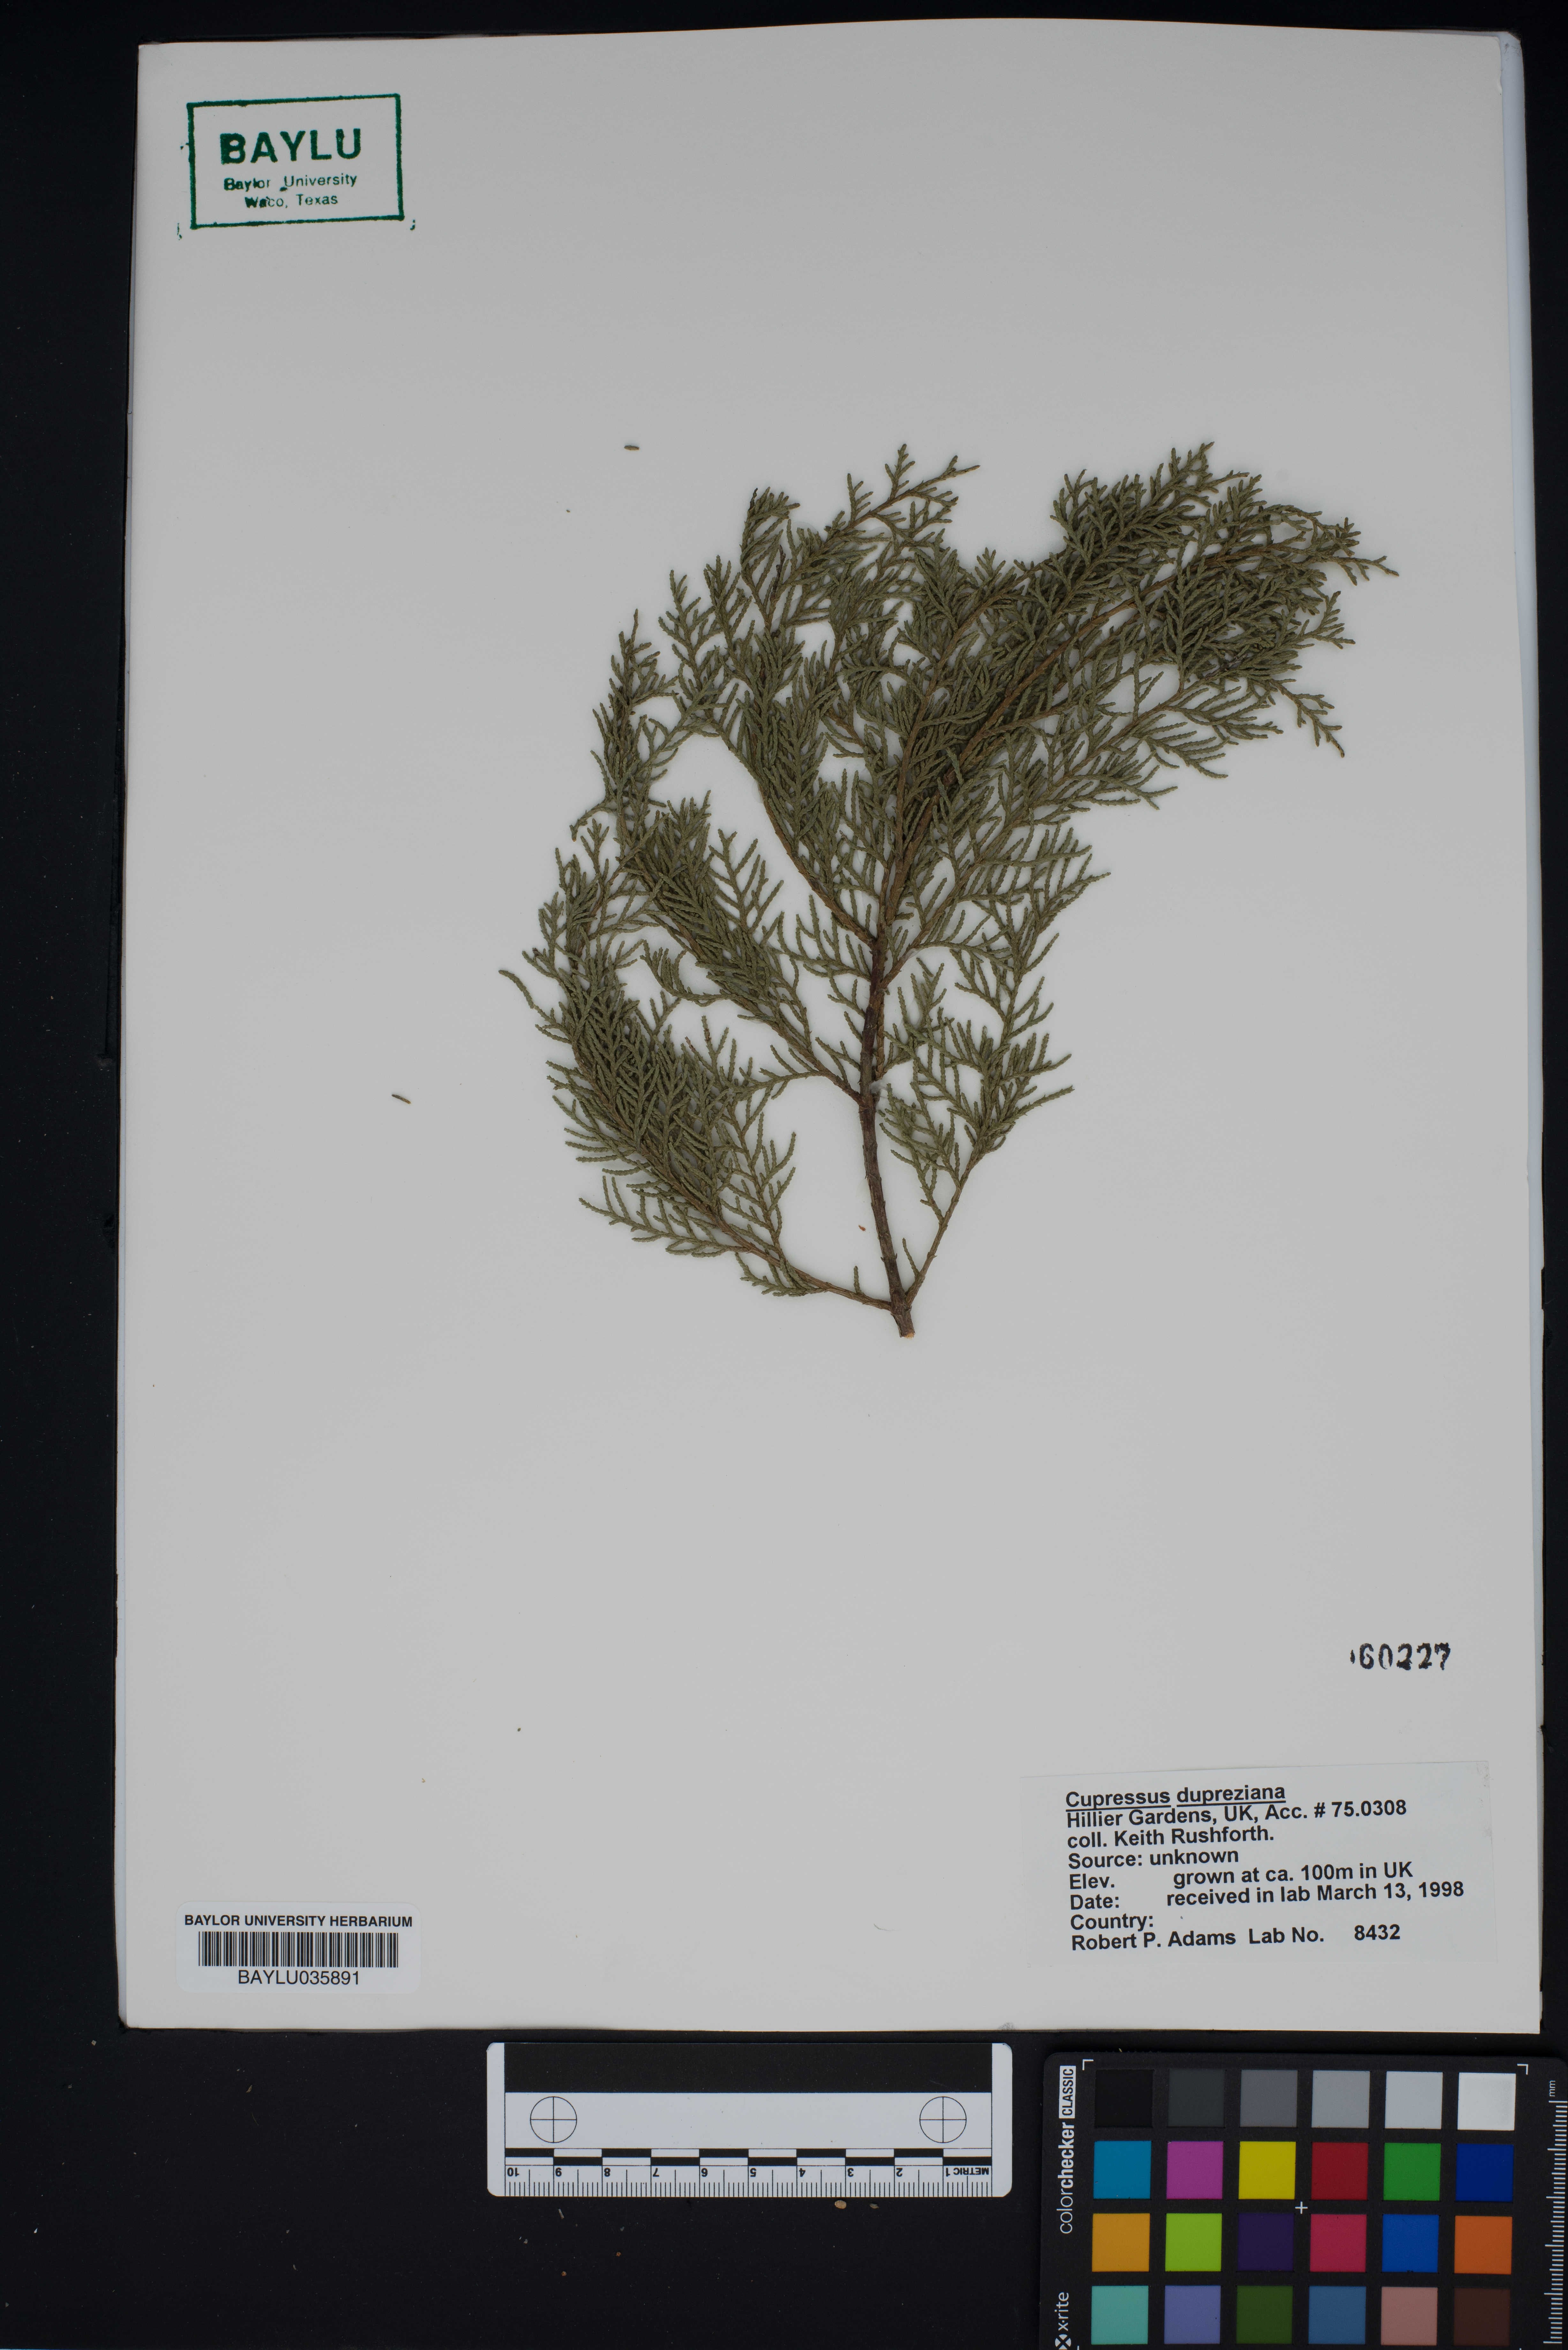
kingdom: Plantae
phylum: Tracheophyta
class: Pinopsida
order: Pinales
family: Cupressaceae
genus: Cupressus
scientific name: Cupressus dupreziana
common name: Moroccan cypress
